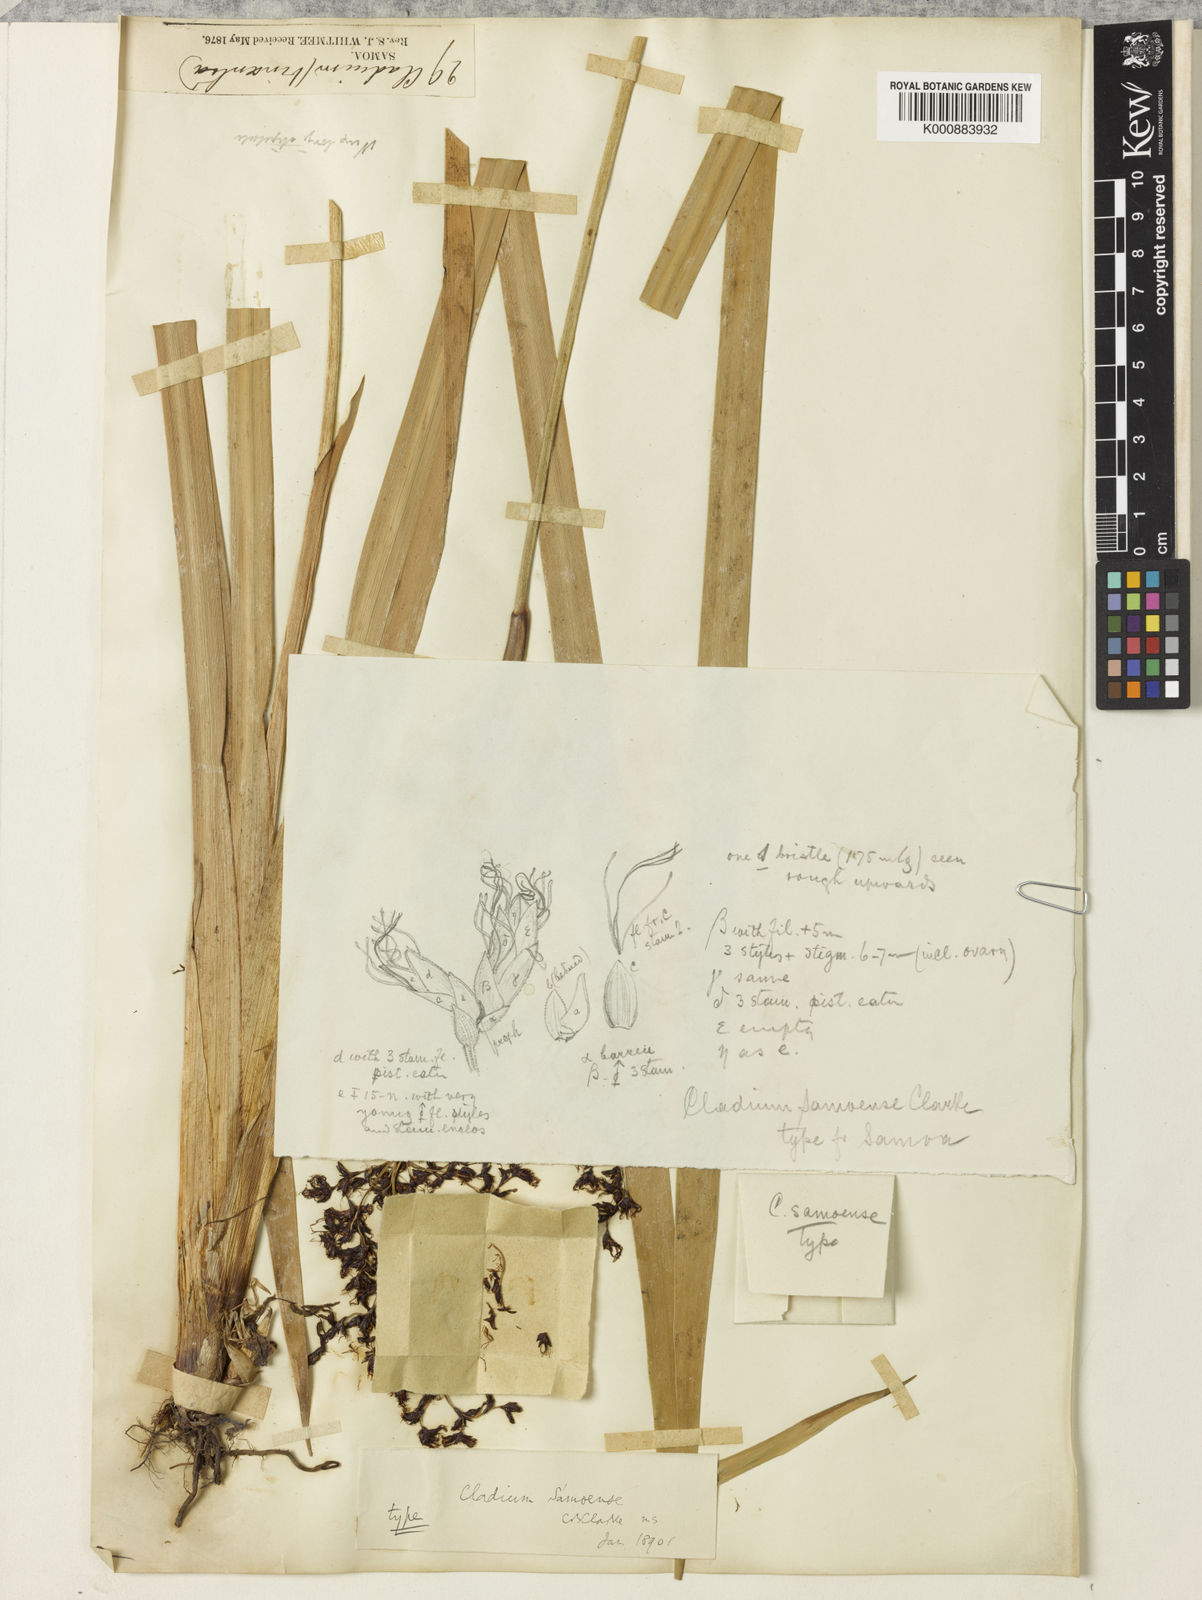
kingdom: Plantae
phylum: Tracheophyta
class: Liliopsida
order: Poales
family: Cyperaceae
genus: Machaerina
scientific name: Machaerina falcata
